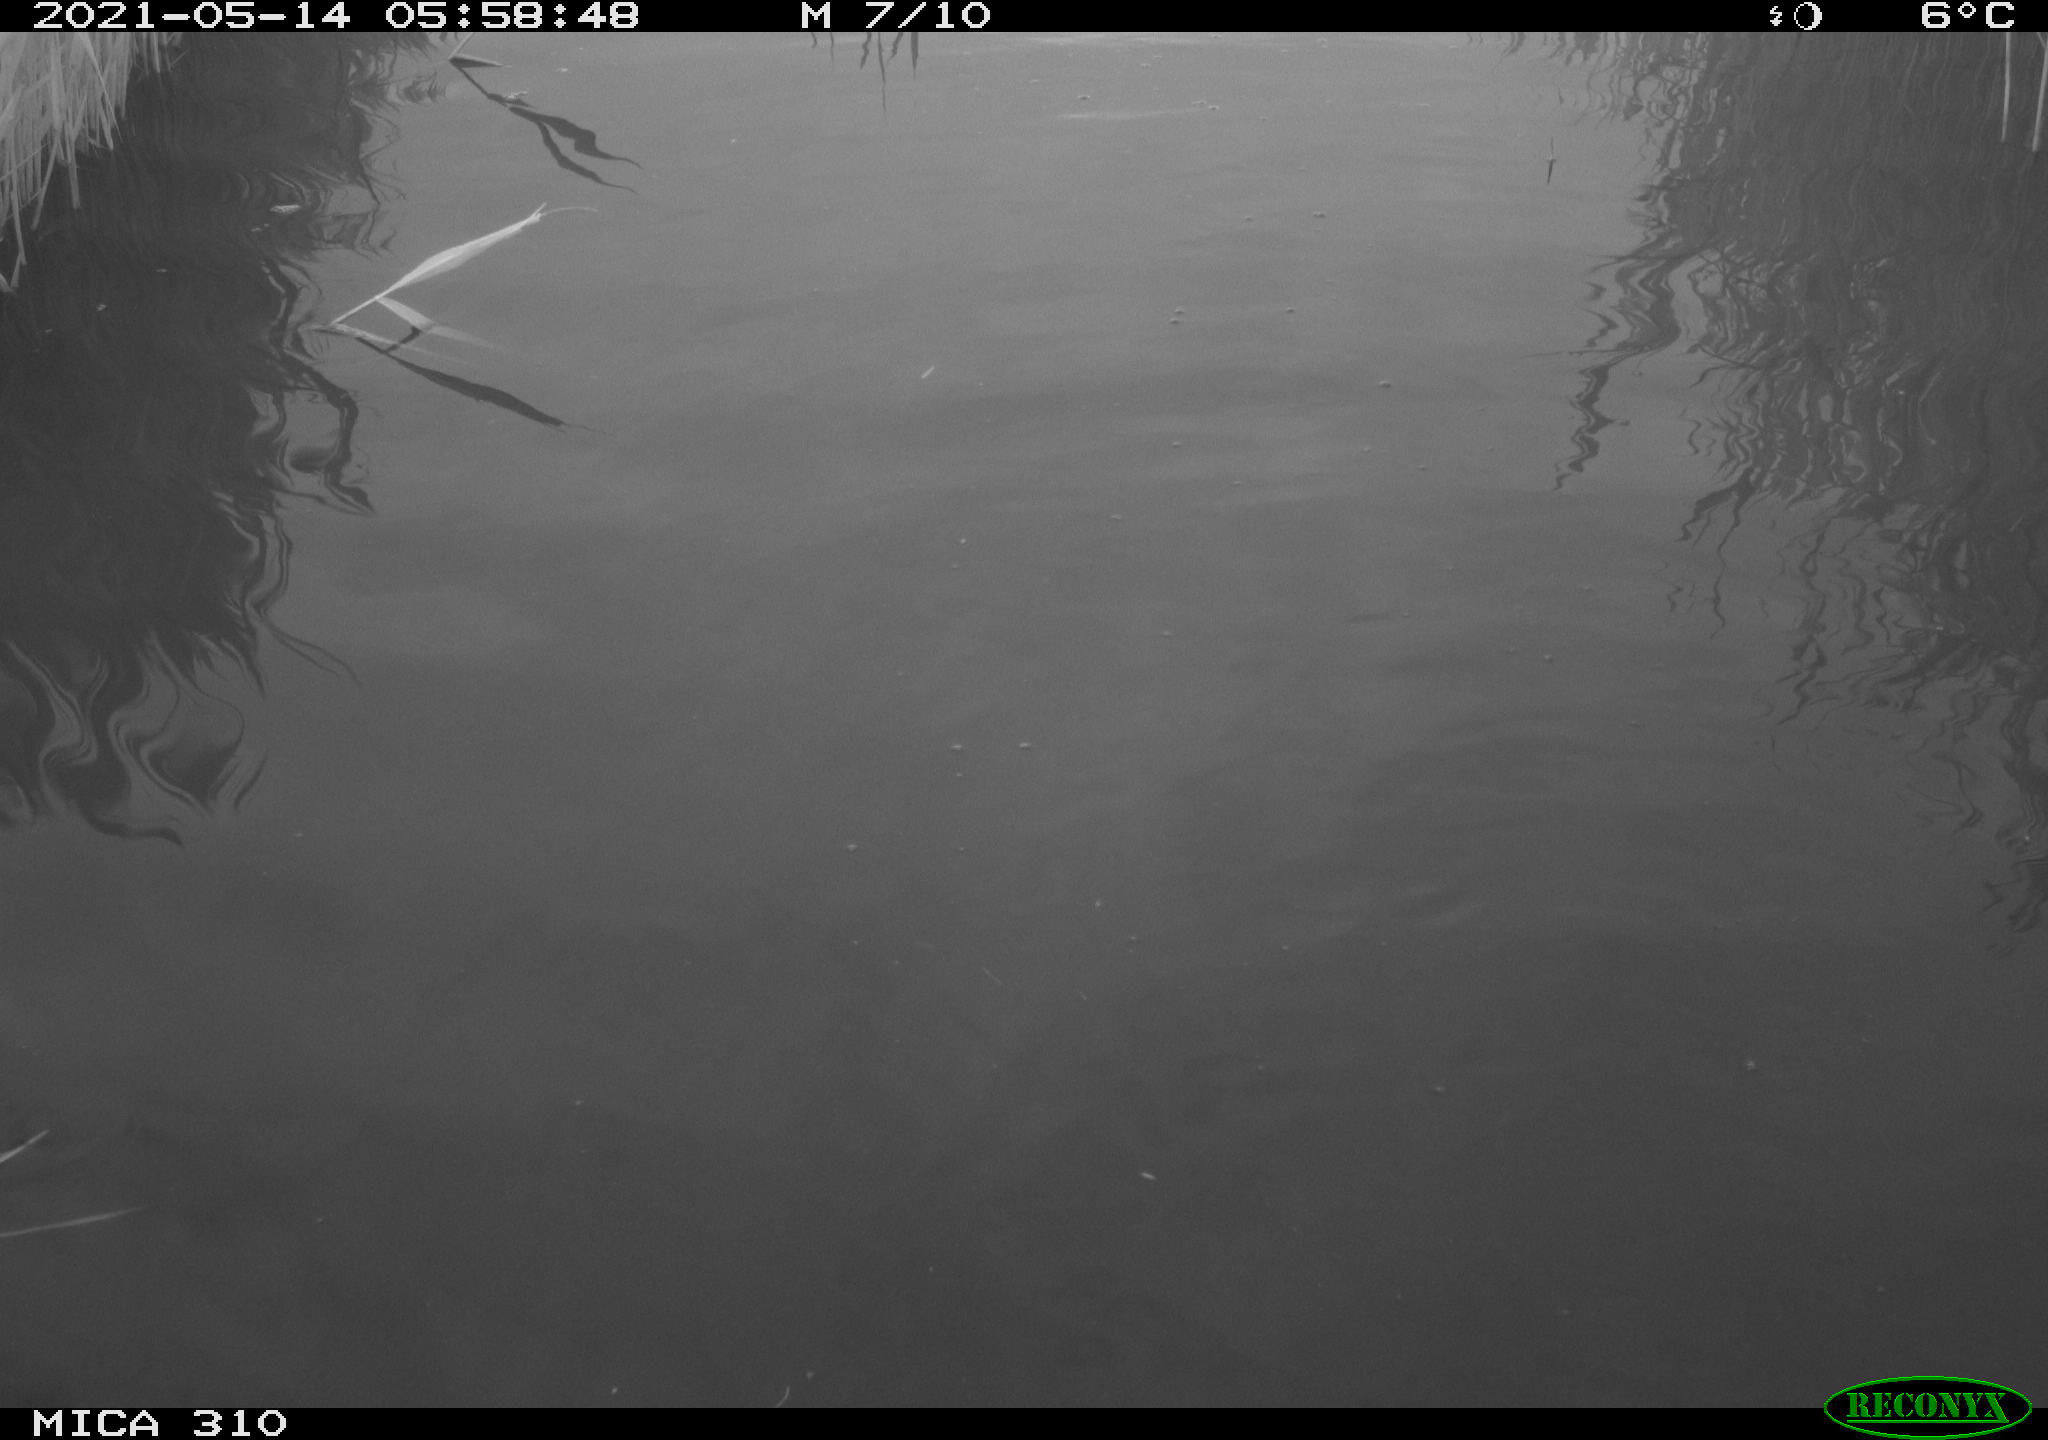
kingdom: Animalia
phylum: Chordata
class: Aves
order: Gruiformes
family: Rallidae
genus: Fulica
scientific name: Fulica atra
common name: Eurasian coot
